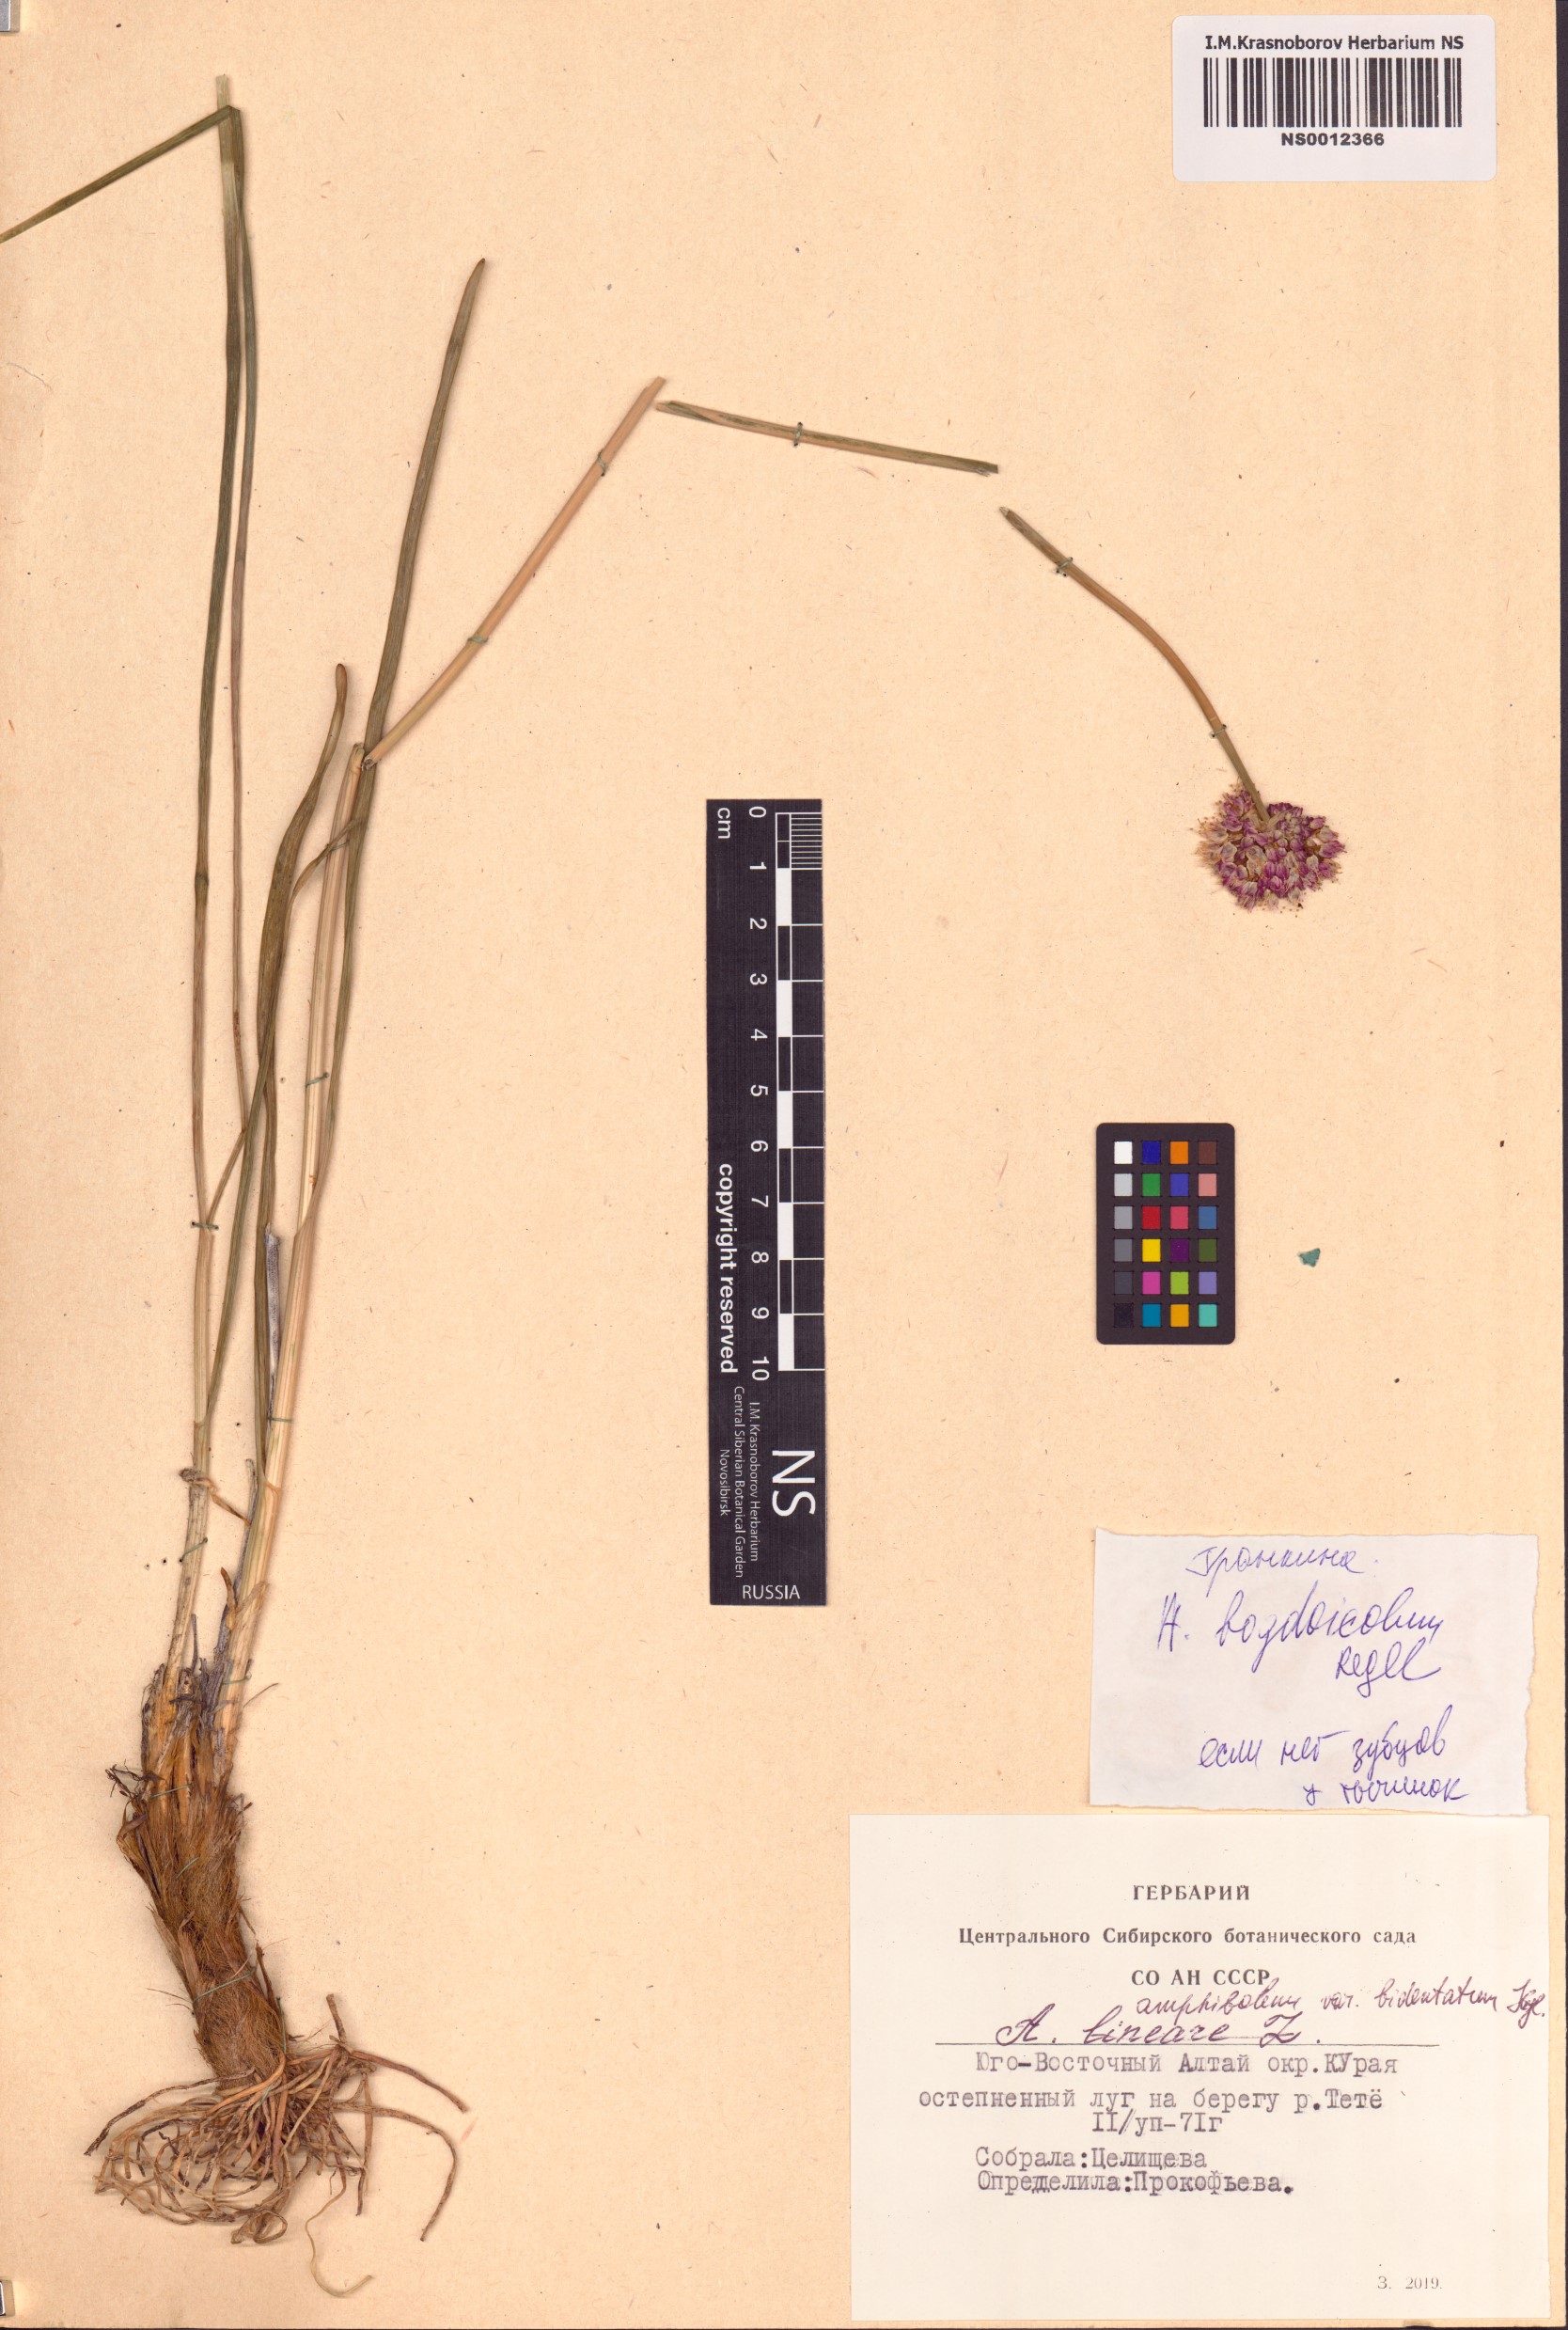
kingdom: Plantae
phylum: Tracheophyta
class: Liliopsida
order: Asparagales
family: Amaryllidaceae
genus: Allium
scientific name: Allium schrenkii
